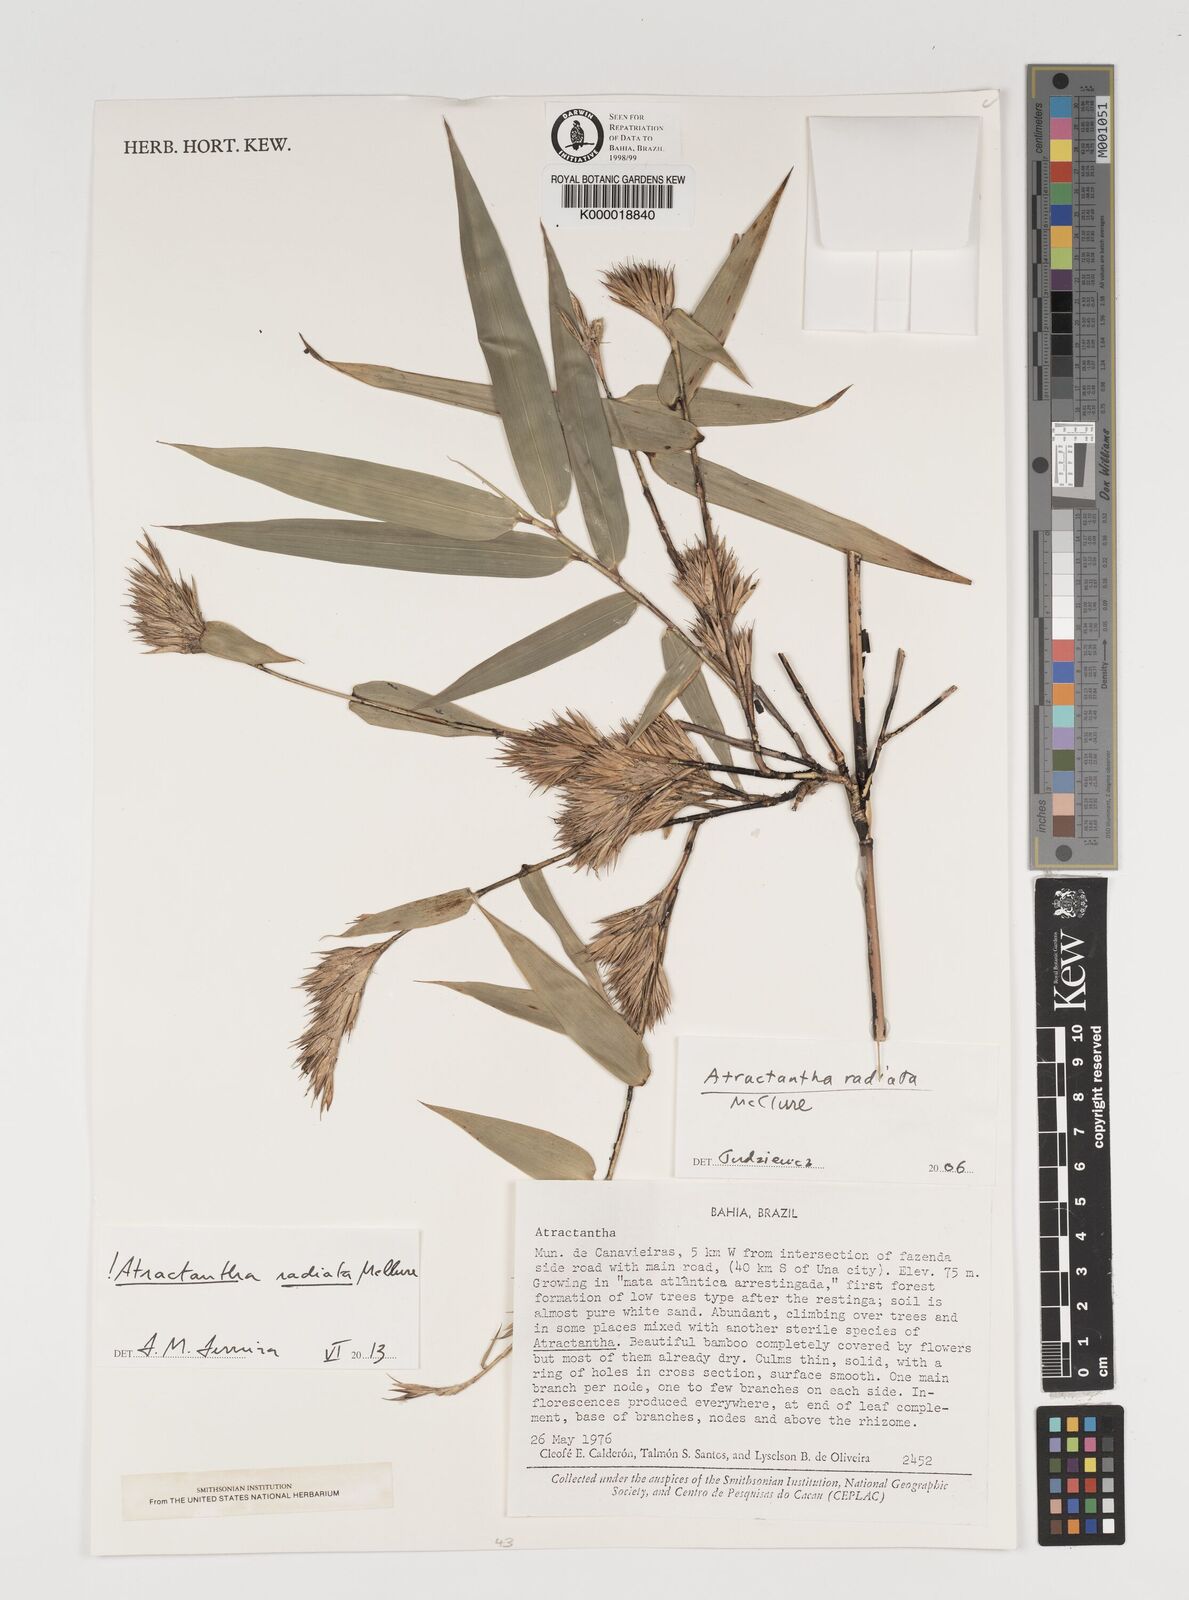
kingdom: Plantae
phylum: Tracheophyta
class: Liliopsida
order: Poales
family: Poaceae
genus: Atractantha
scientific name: Atractantha
